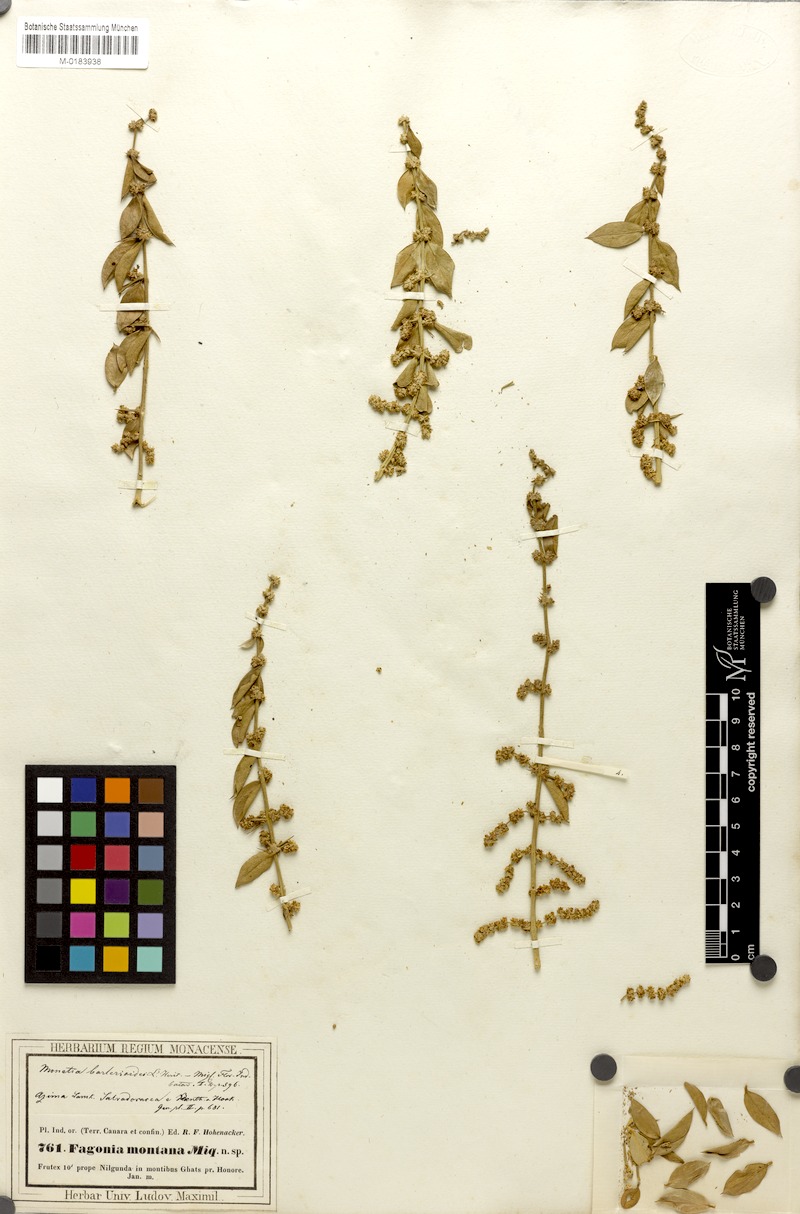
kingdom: Plantae
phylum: Tracheophyta
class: Magnoliopsida
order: Brassicales
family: Salvadoraceae
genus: Azima
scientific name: Azima tetracantha
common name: Needle bush
